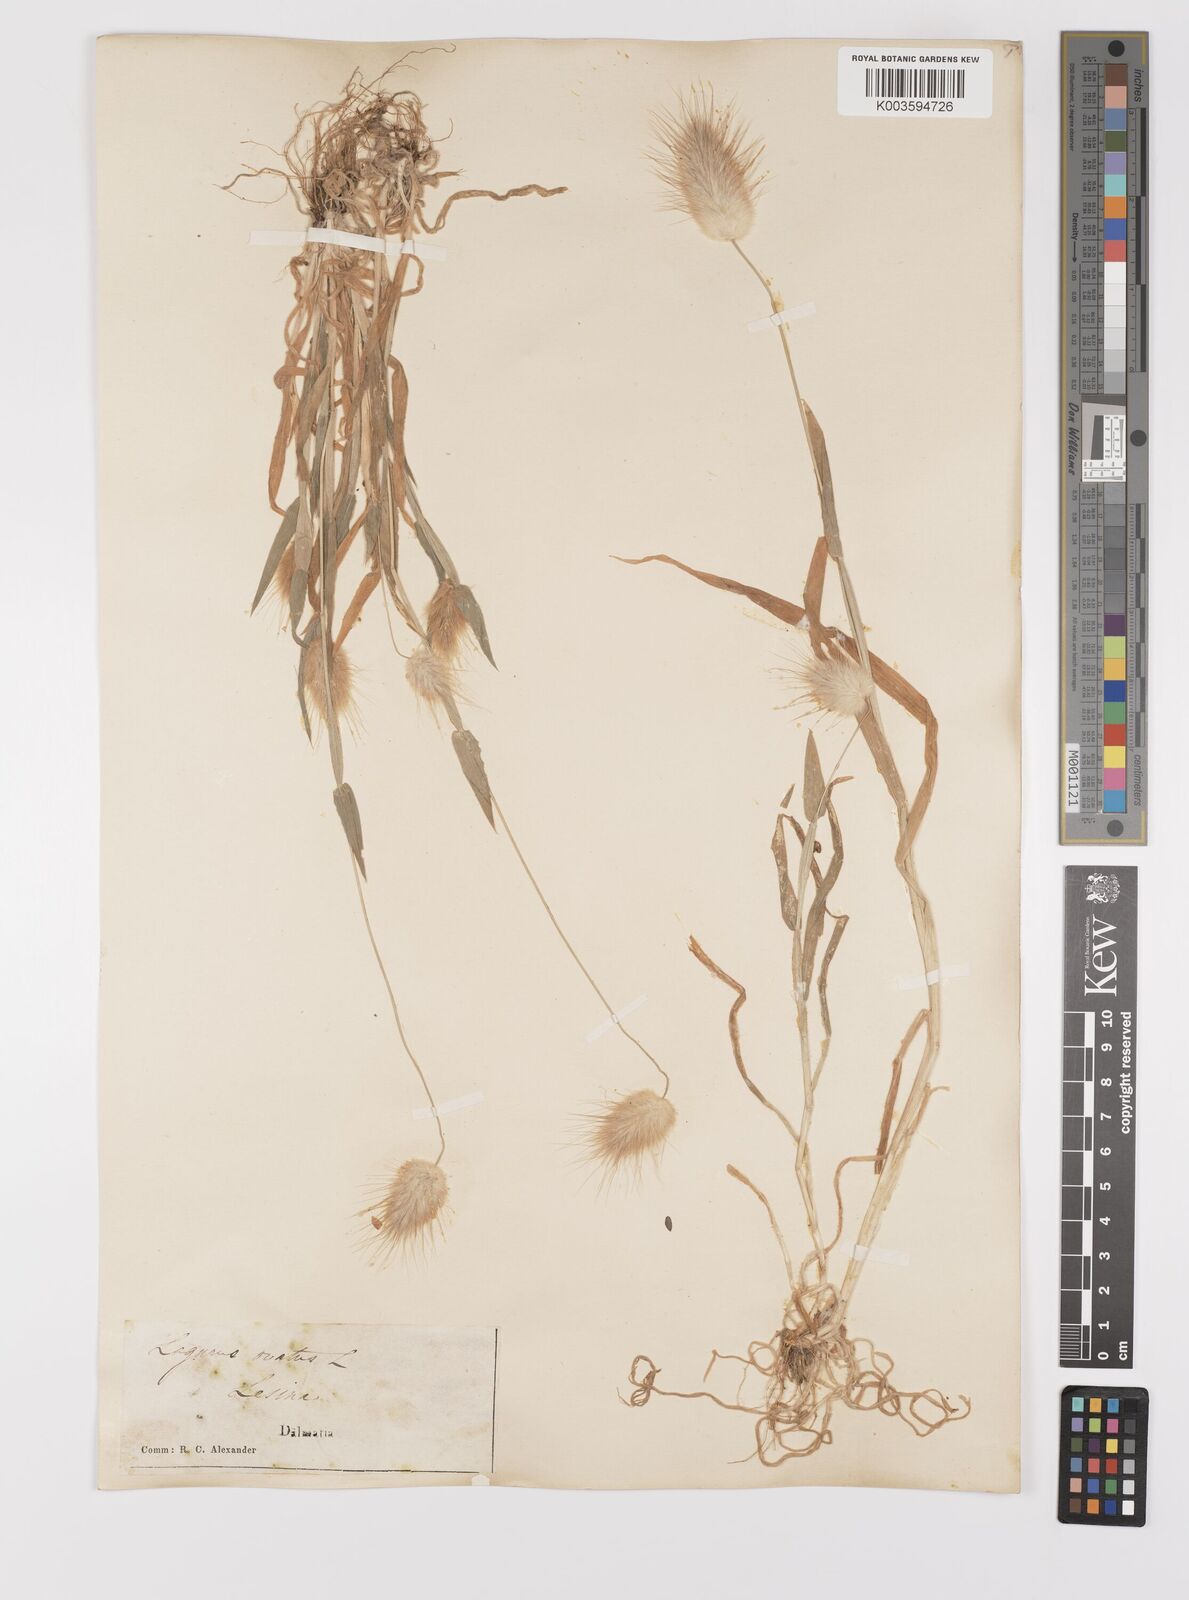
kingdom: Plantae
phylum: Tracheophyta
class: Liliopsida
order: Poales
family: Poaceae
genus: Lagurus
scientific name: Lagurus ovatus
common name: Hare's-tail
